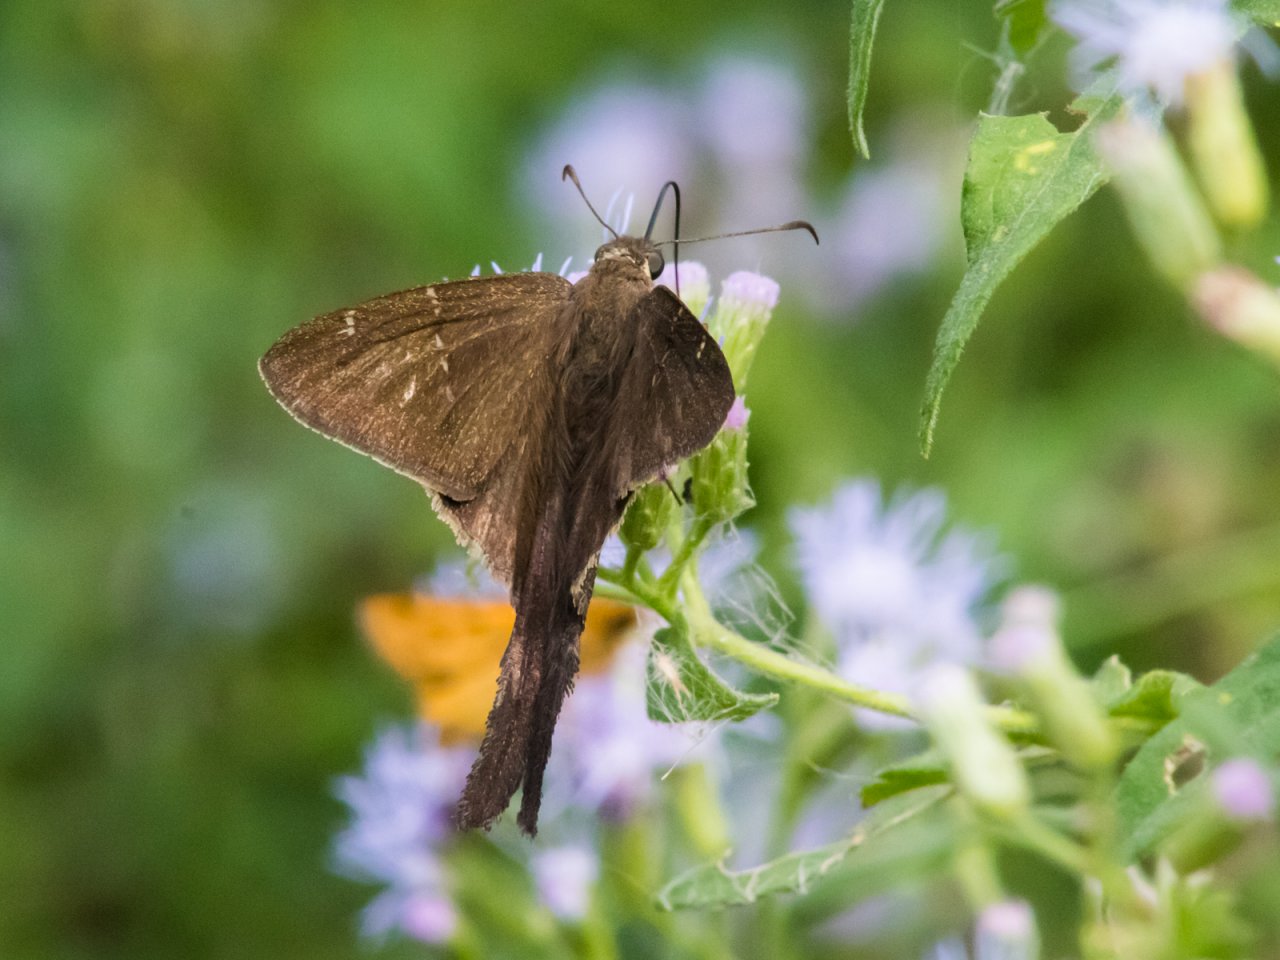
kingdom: Animalia
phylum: Arthropoda
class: Insecta
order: Lepidoptera
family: Hesperiidae
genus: Urbanus
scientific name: Urbanus procne
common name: Brown Longtail
